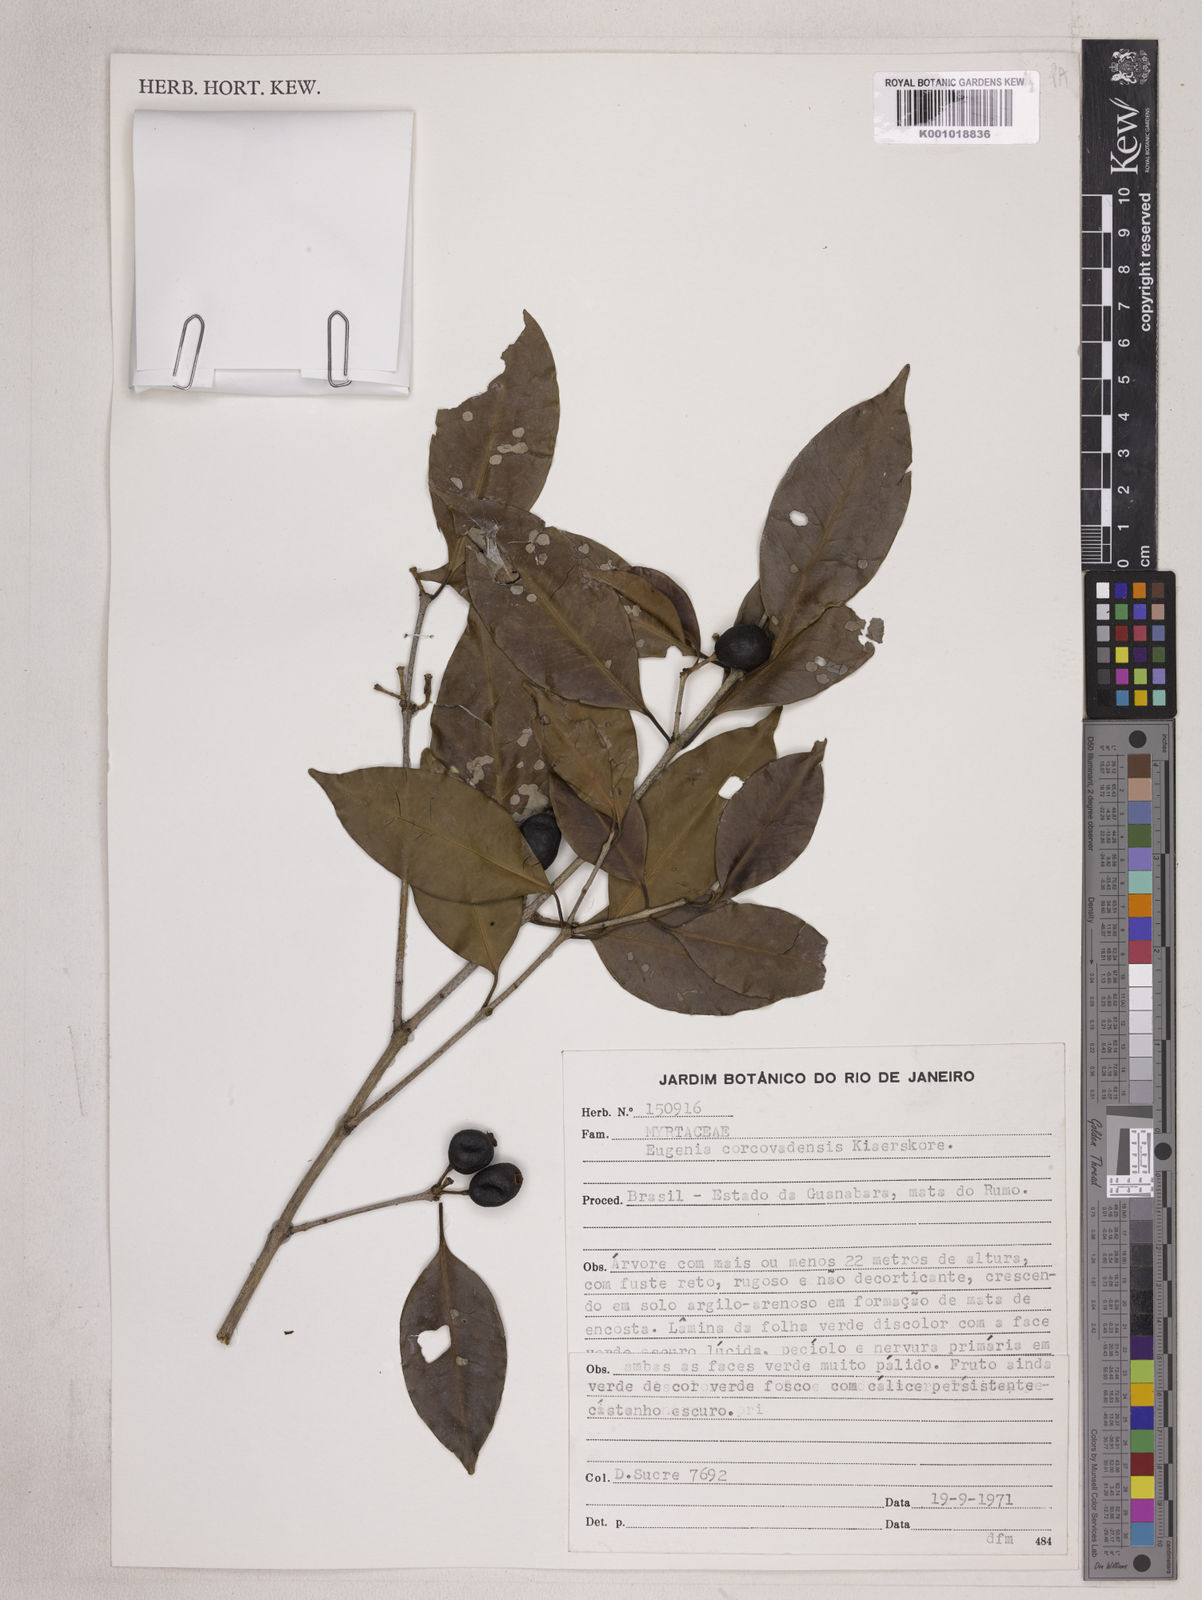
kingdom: Plantae
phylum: Tracheophyta
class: Magnoliopsida
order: Myrtales
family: Myrtaceae
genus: Eugenia
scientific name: Eugenia corcovadensis
